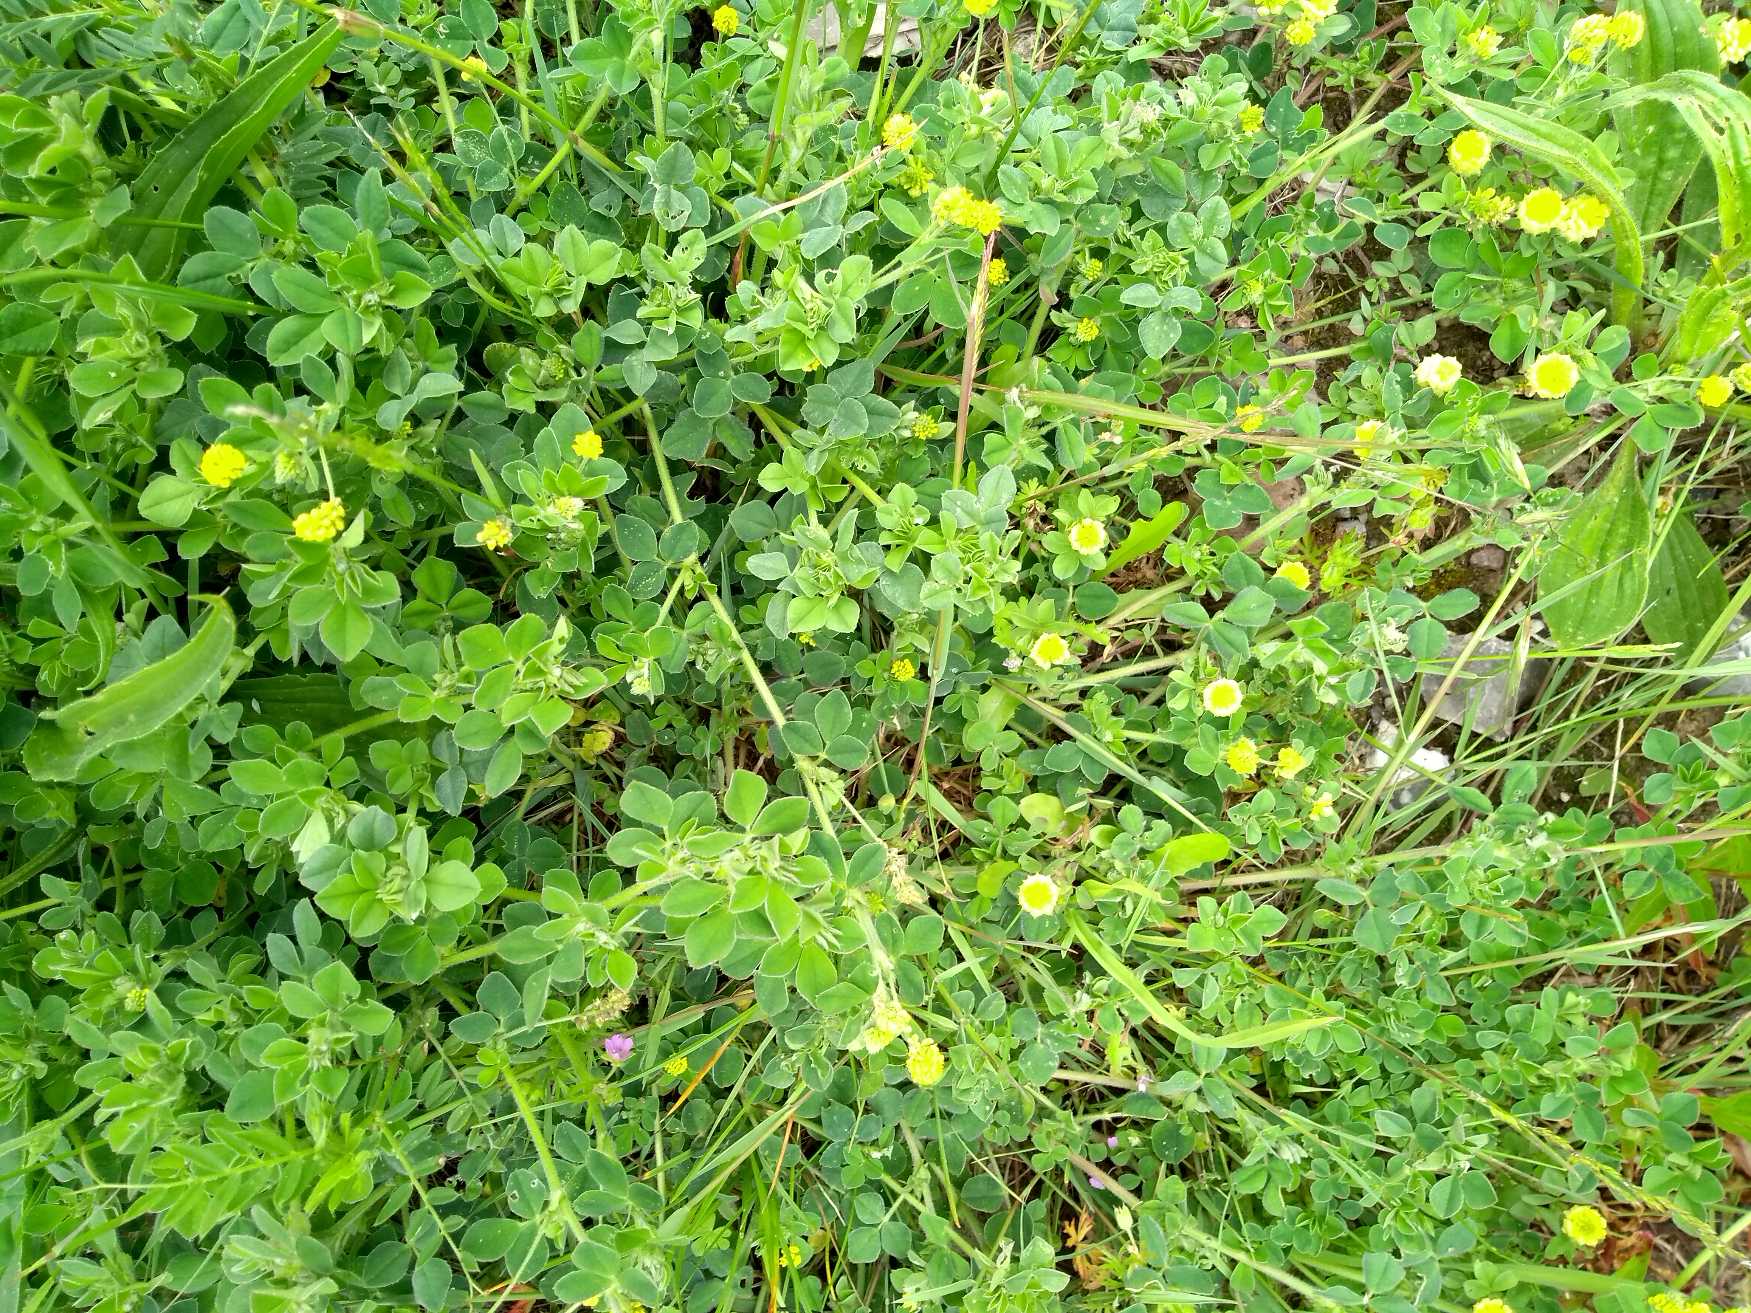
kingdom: Plantae
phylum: Tracheophyta
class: Magnoliopsida
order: Fabales
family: Fabaceae
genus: Medicago
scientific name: Medicago lupulina
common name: Humle-sneglebælg
